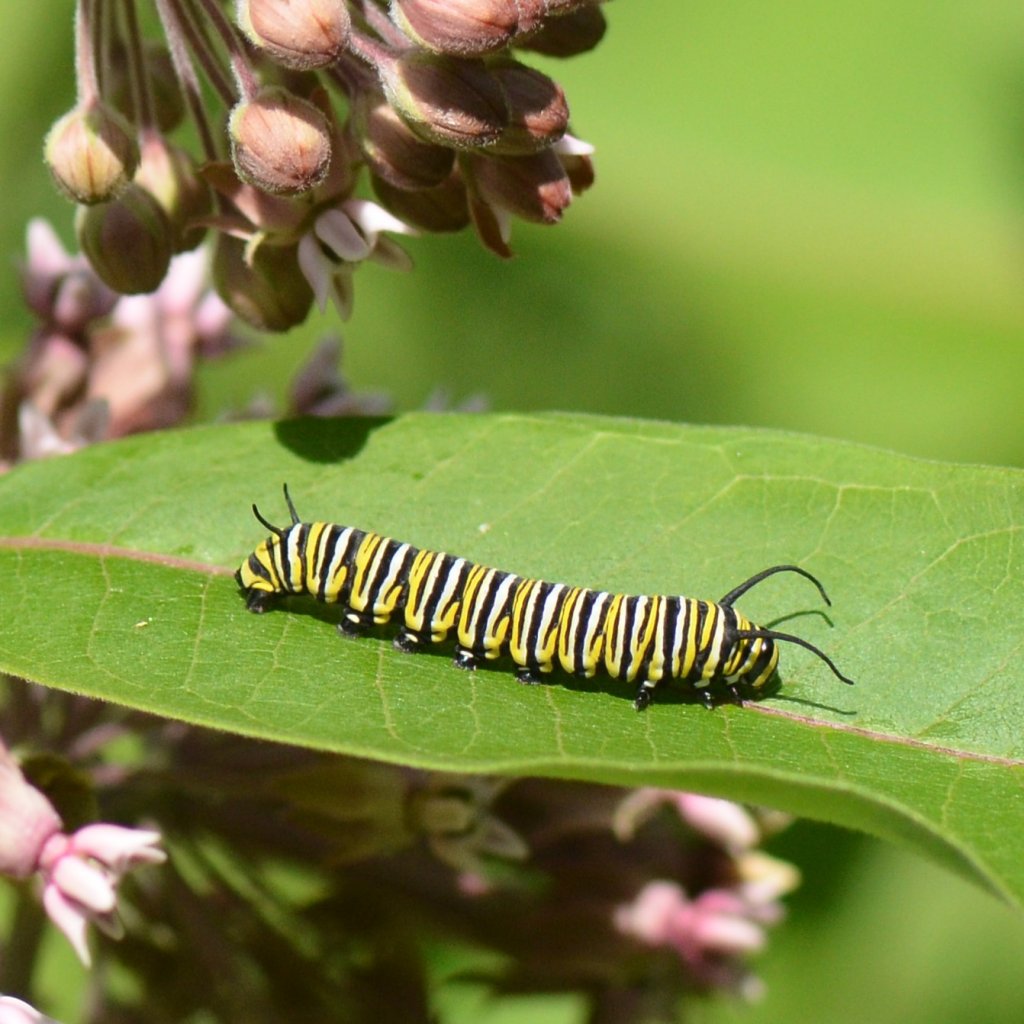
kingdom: Animalia
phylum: Arthropoda
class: Insecta
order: Lepidoptera
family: Nymphalidae
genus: Danaus
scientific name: Danaus plexippus
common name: Monarch
